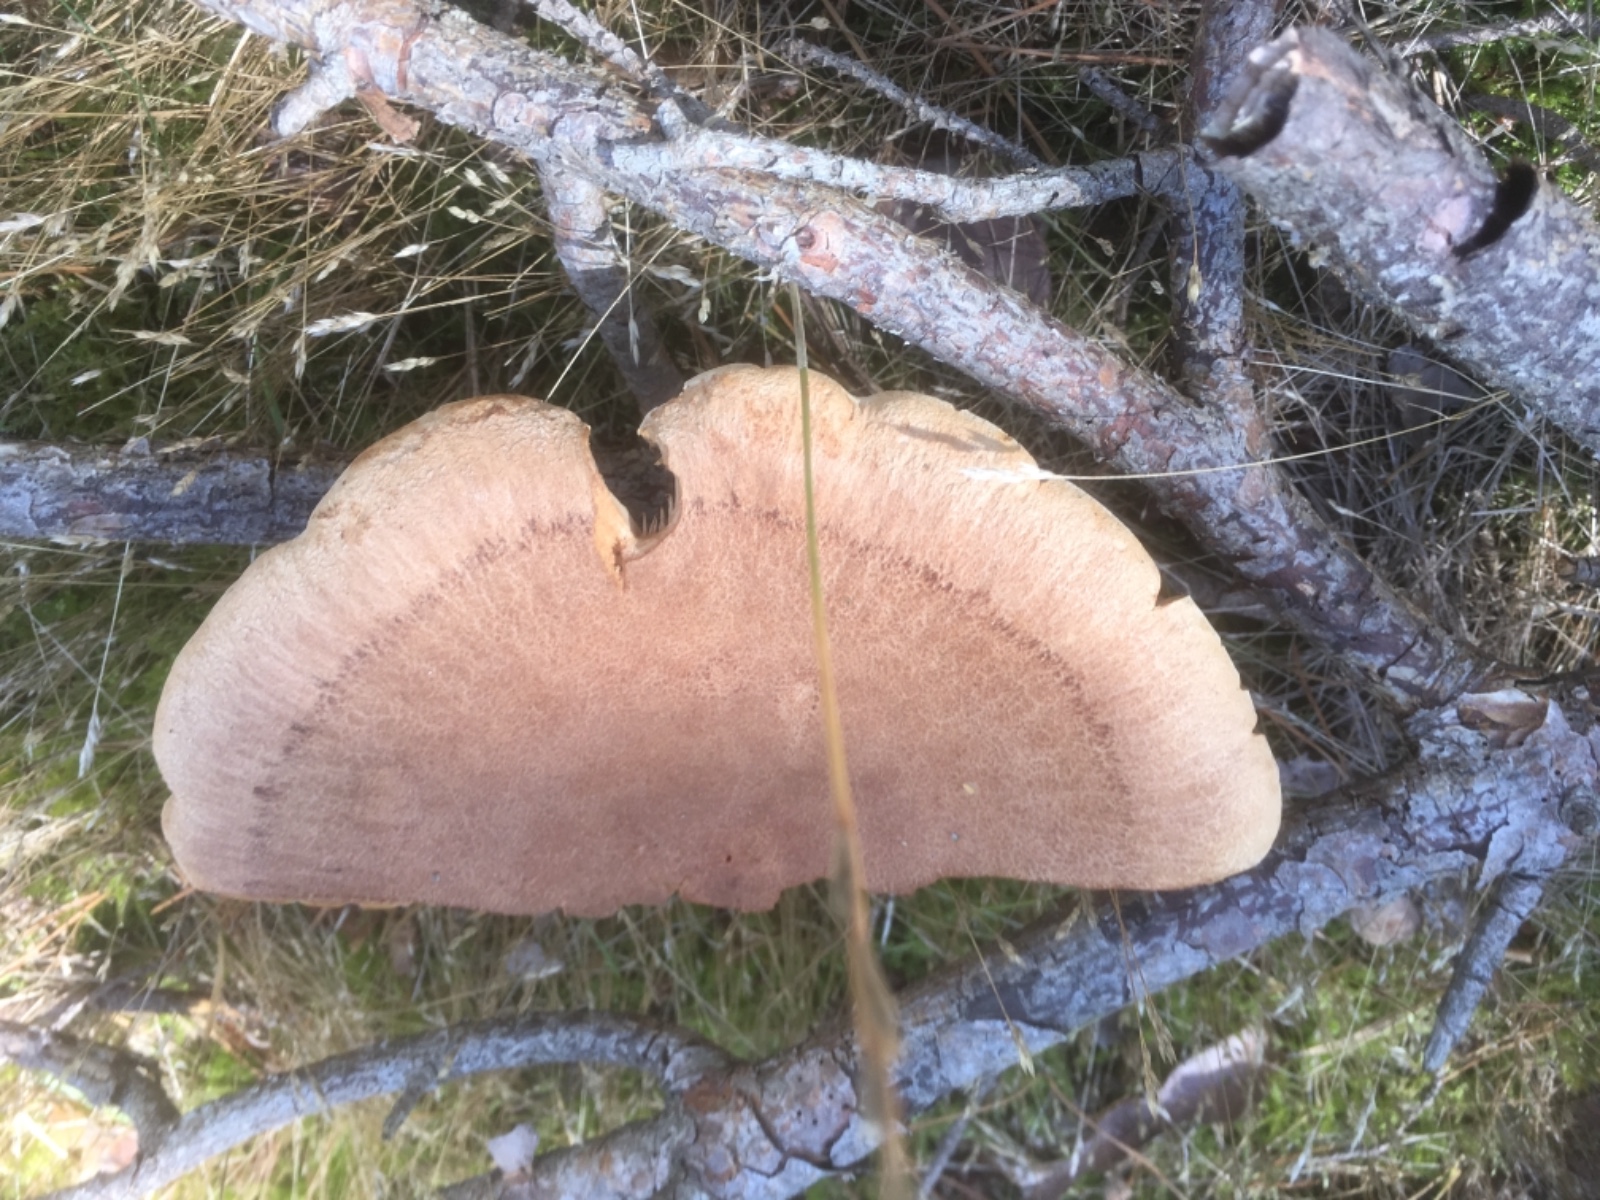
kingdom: Fungi
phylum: Basidiomycota
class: Agaricomycetes
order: Russulales
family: Russulaceae
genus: Lactarius
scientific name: Lactarius helvus
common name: mose-mælkehat
